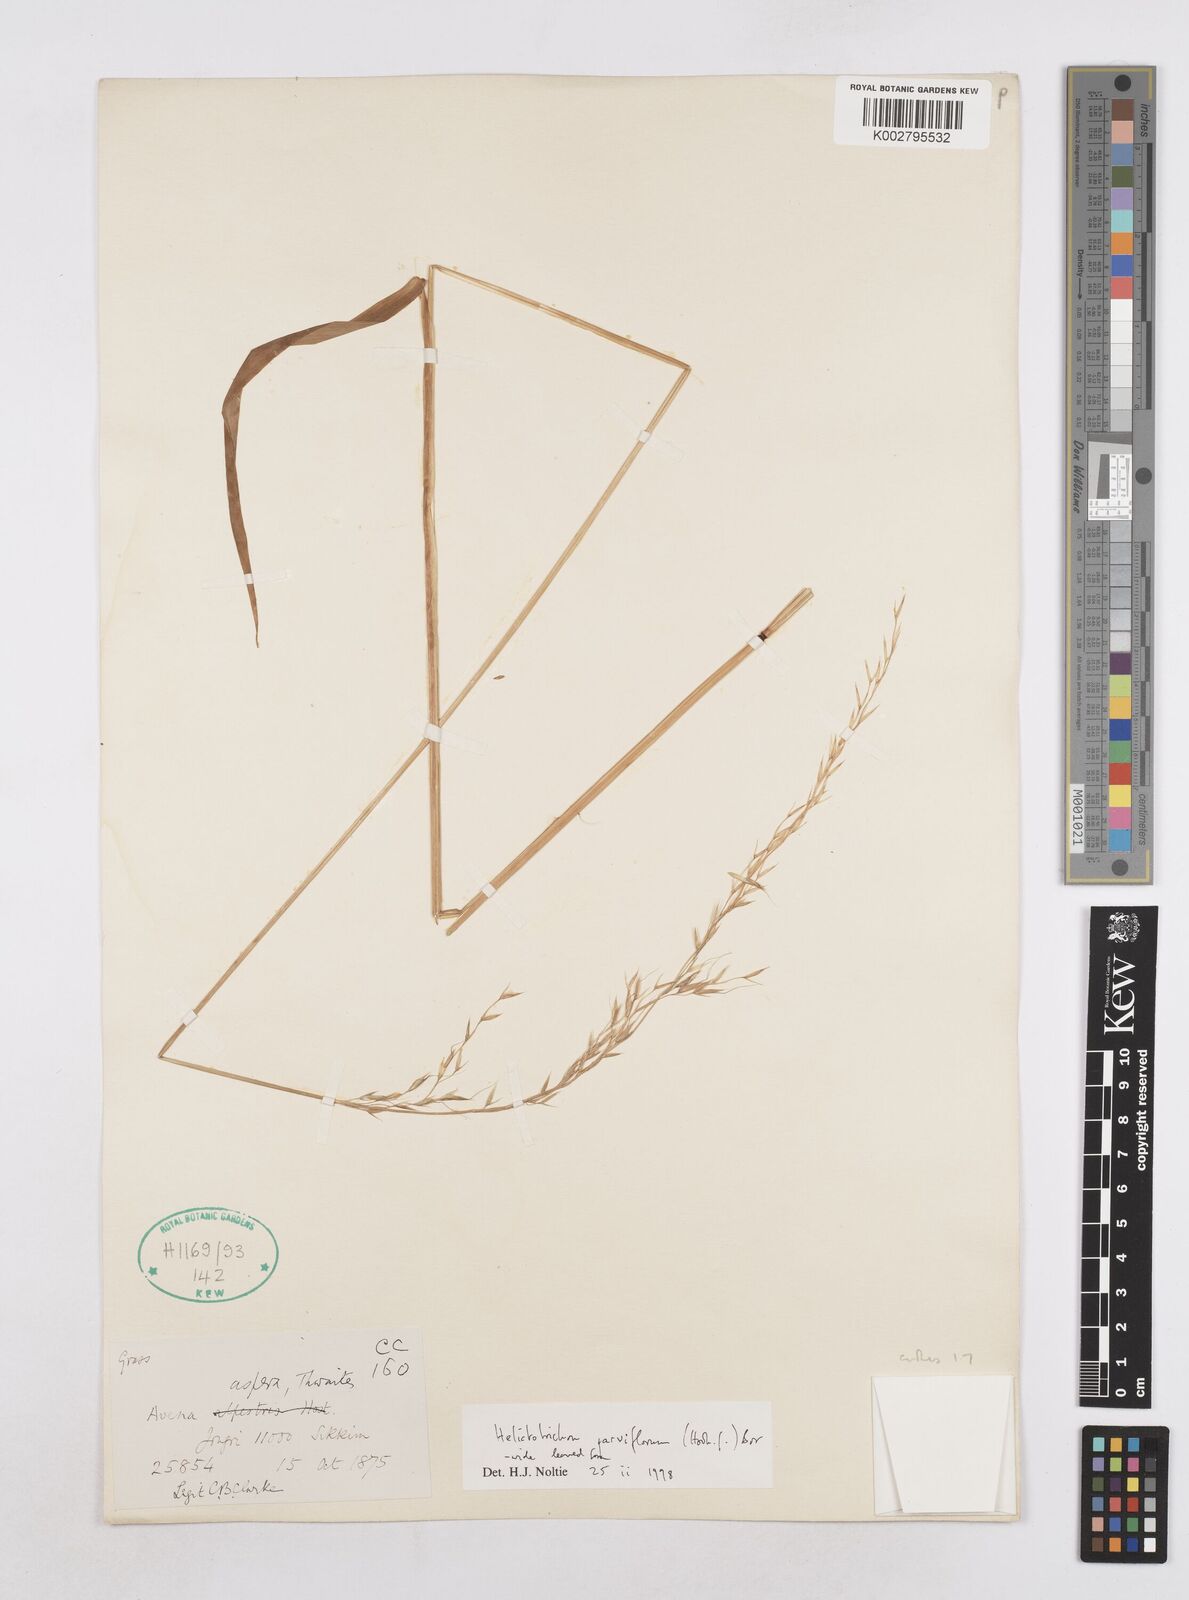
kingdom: Plantae
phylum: Tracheophyta
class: Liliopsida
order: Poales
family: Poaceae
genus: Trisetopsis
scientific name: Trisetopsis junghuhnii
